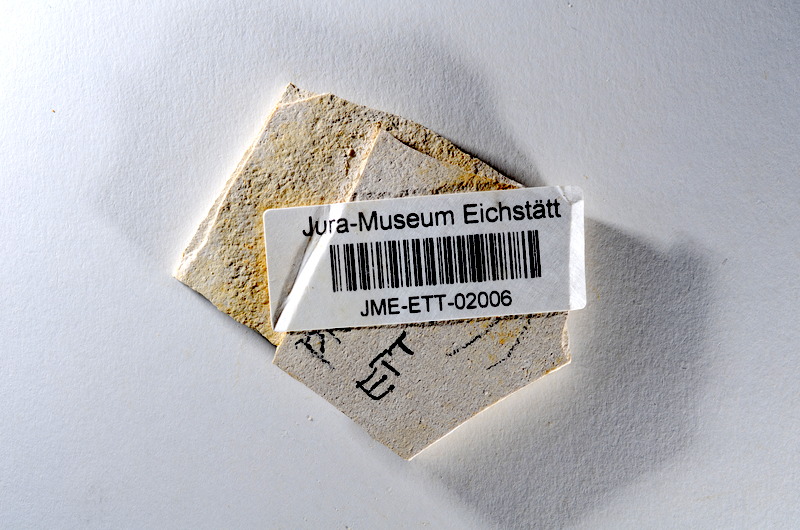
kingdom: Animalia
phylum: Chordata
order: Salmoniformes
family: Orthogonikleithridae
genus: Orthogonikleithrus
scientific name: Orthogonikleithrus hoelli
